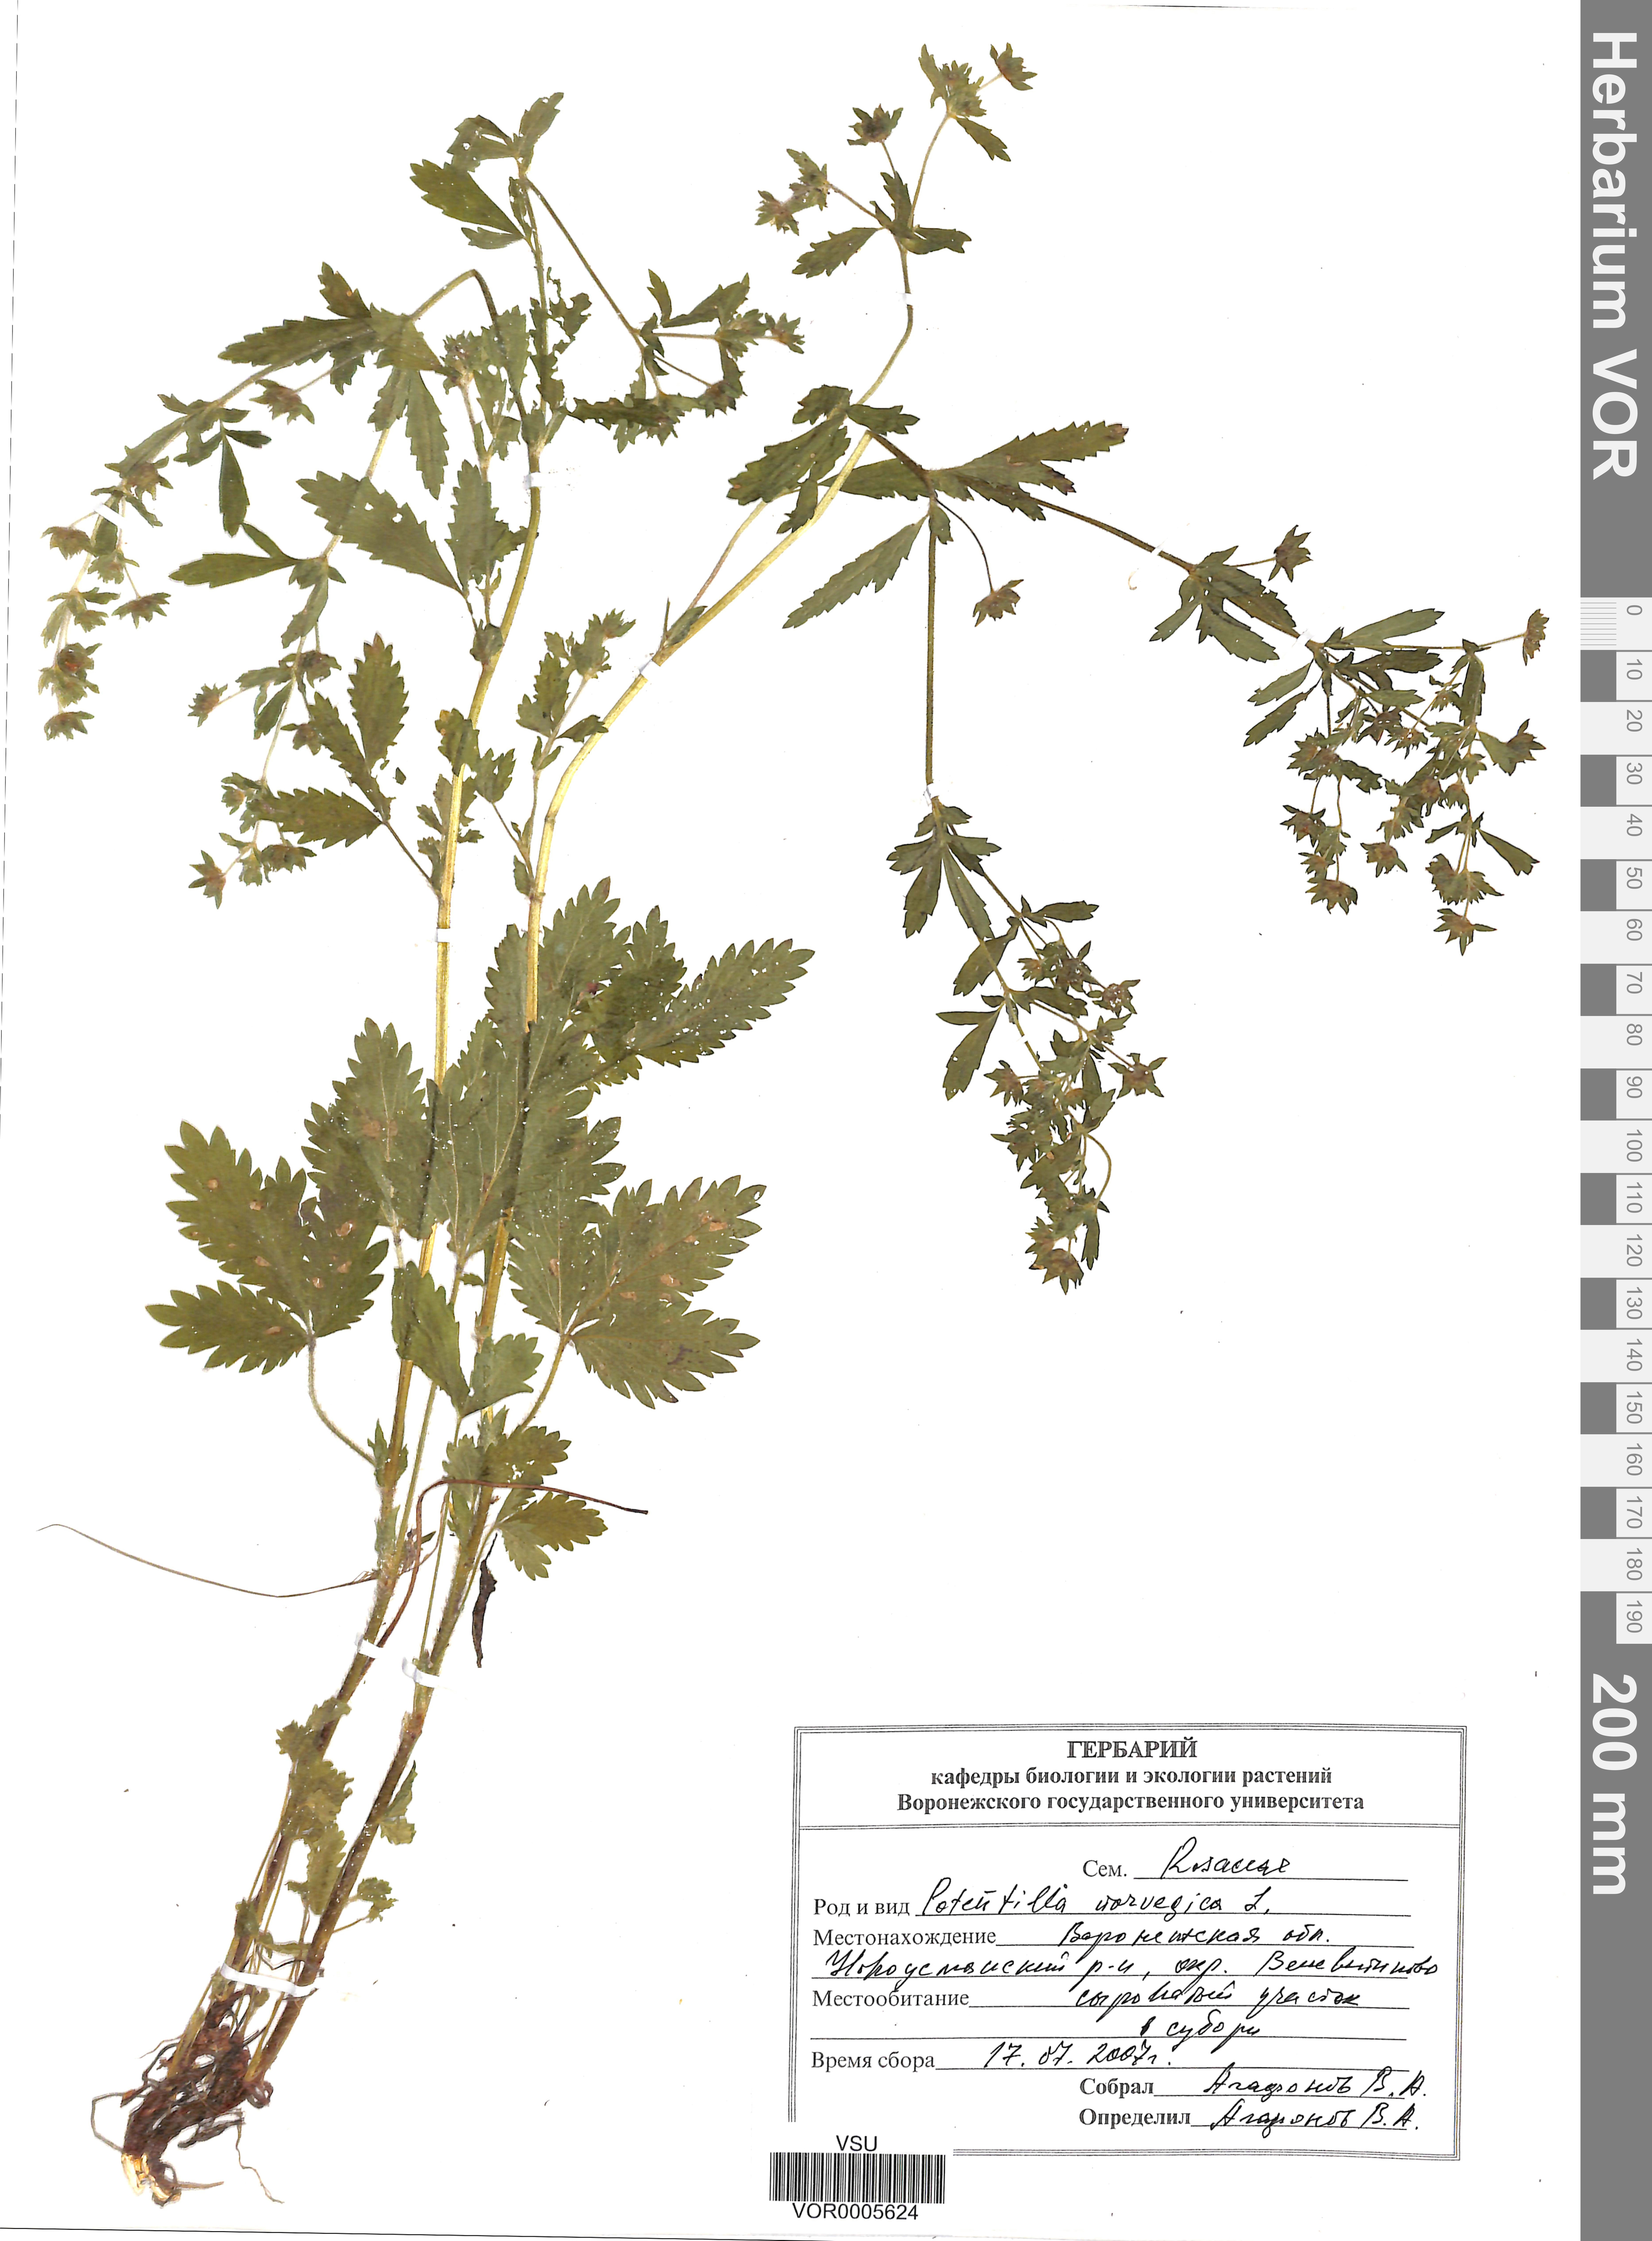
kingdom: Plantae
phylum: Tracheophyta
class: Magnoliopsida
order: Rosales
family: Rosaceae
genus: Potentilla
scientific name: Potentilla erecta
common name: Tormentil
